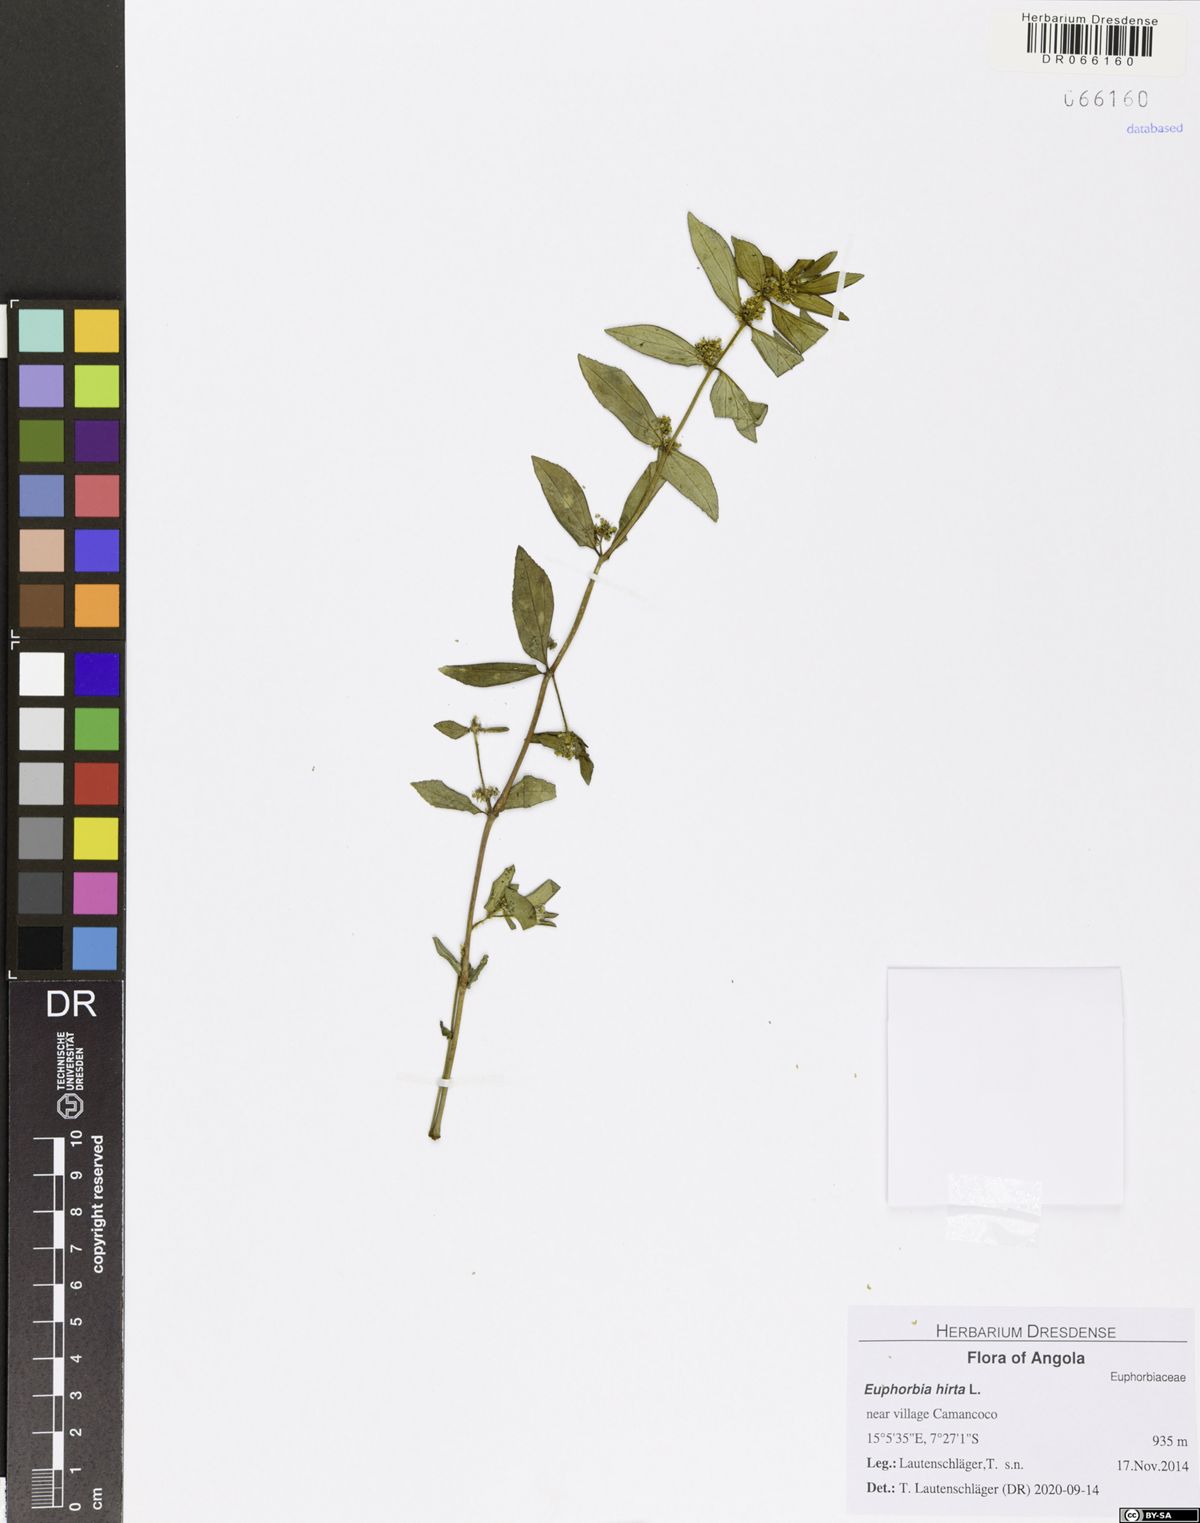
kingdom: Plantae
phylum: Tracheophyta
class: Magnoliopsida
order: Malpighiales
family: Euphorbiaceae
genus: Euphorbia
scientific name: Euphorbia hirta
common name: Pillpod sandmat
